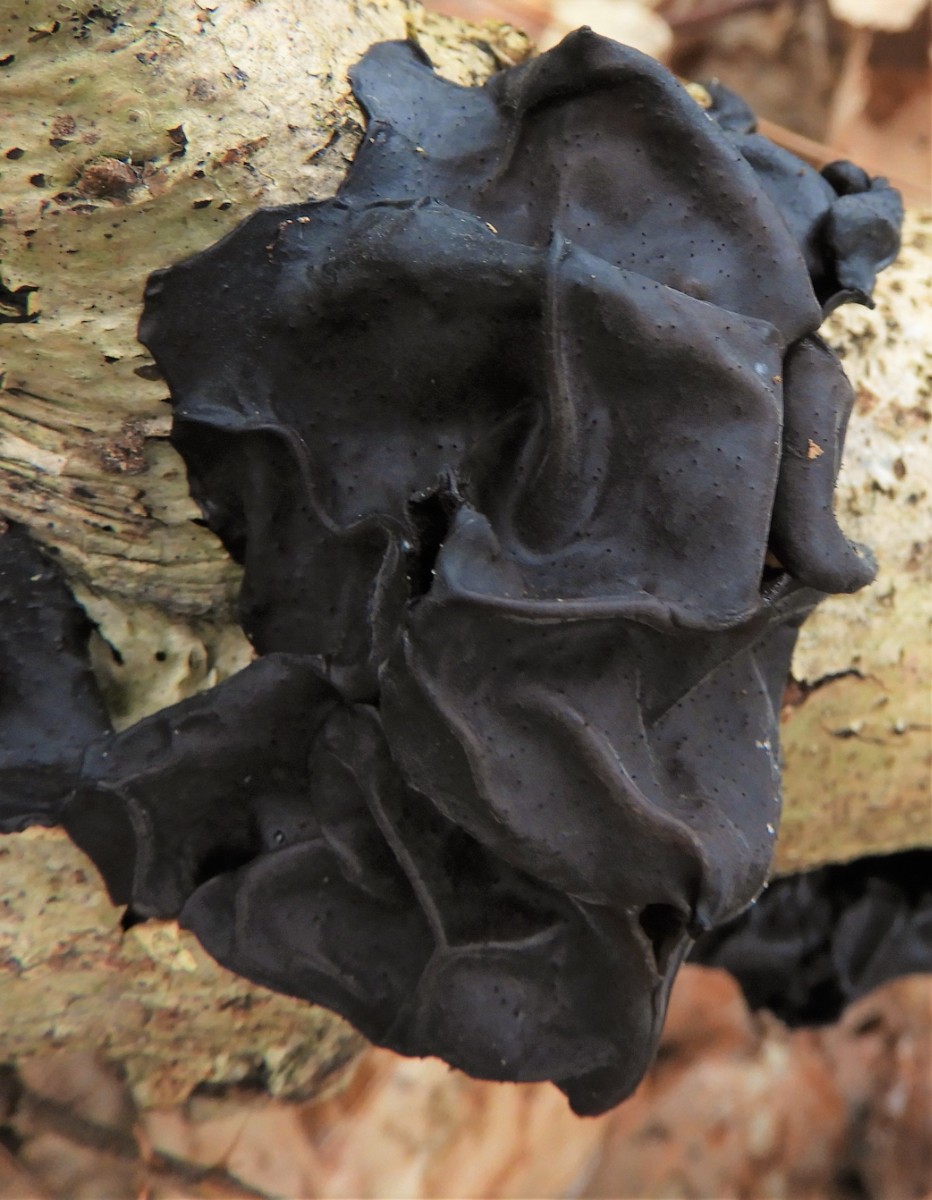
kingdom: Fungi
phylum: Basidiomycota
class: Agaricomycetes
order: Auriculariales
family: Auriculariaceae
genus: Exidia
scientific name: Exidia glandulosa
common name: ege-bævretop
